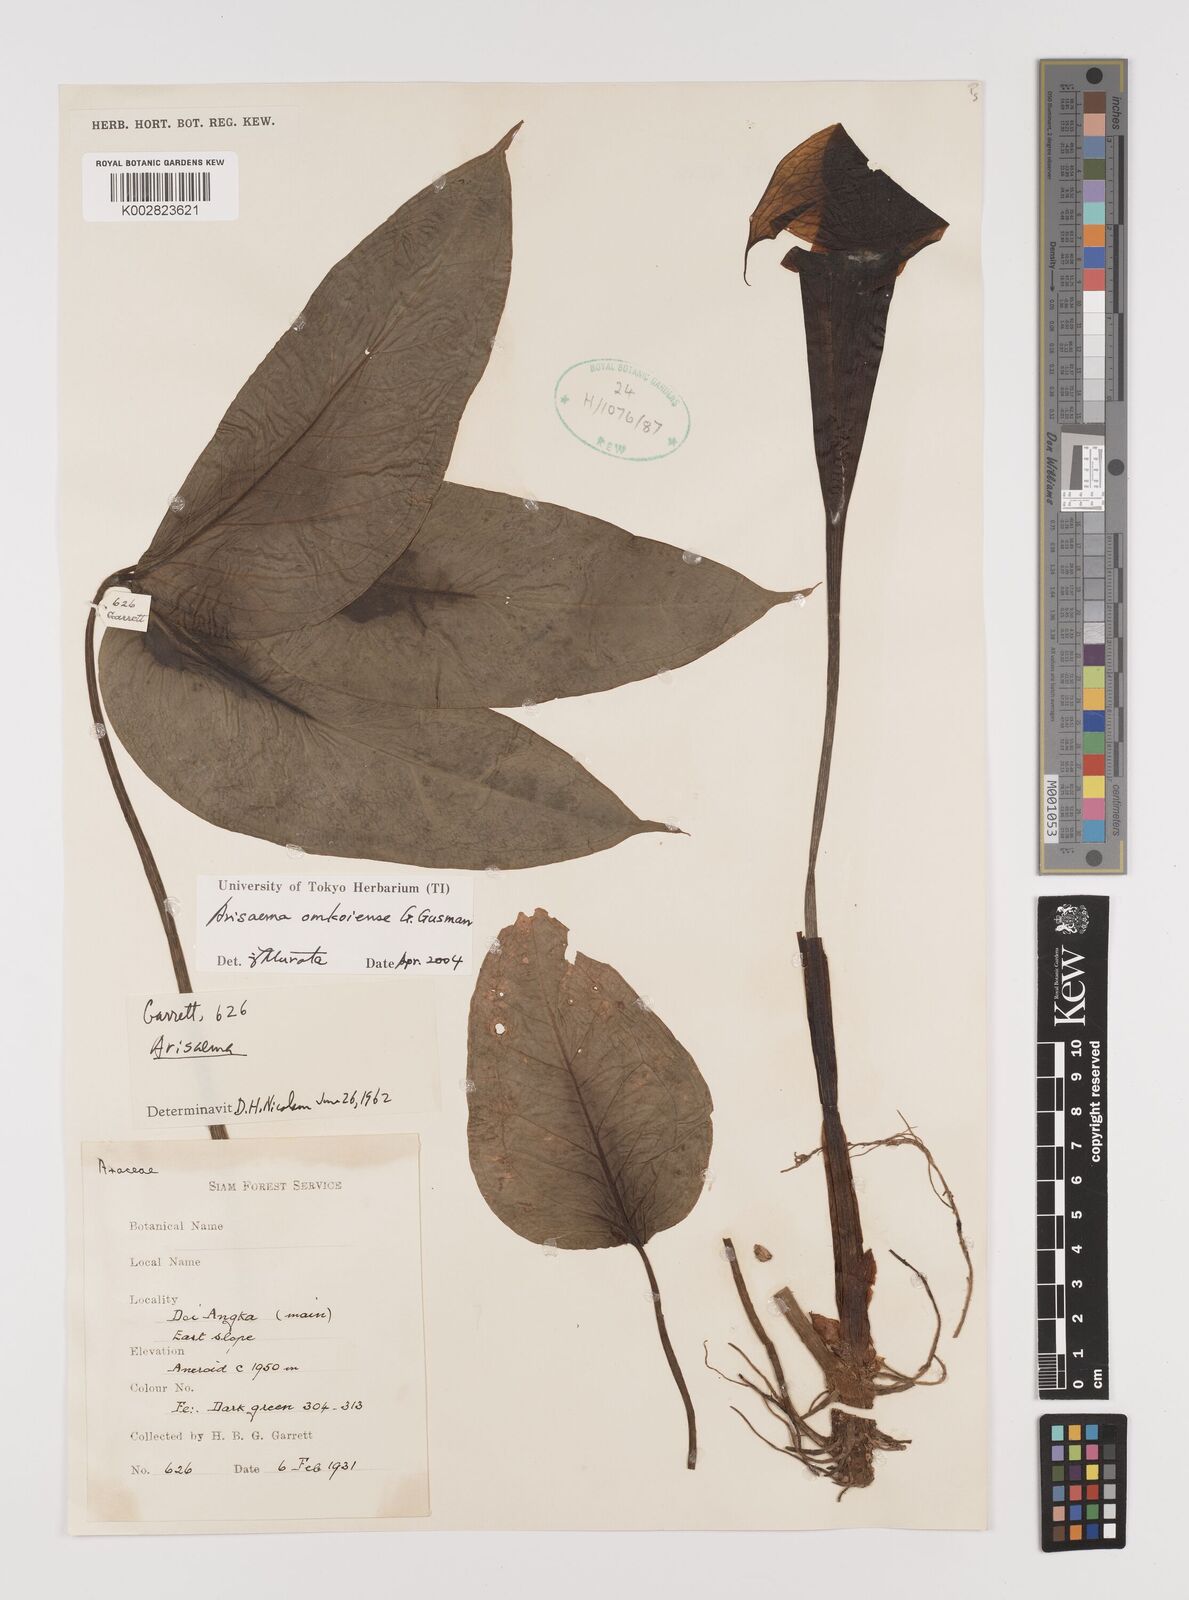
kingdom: Plantae
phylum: Tracheophyta
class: Liliopsida
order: Alismatales
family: Araceae
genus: Arisaema
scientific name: Arisaema omkoiense
